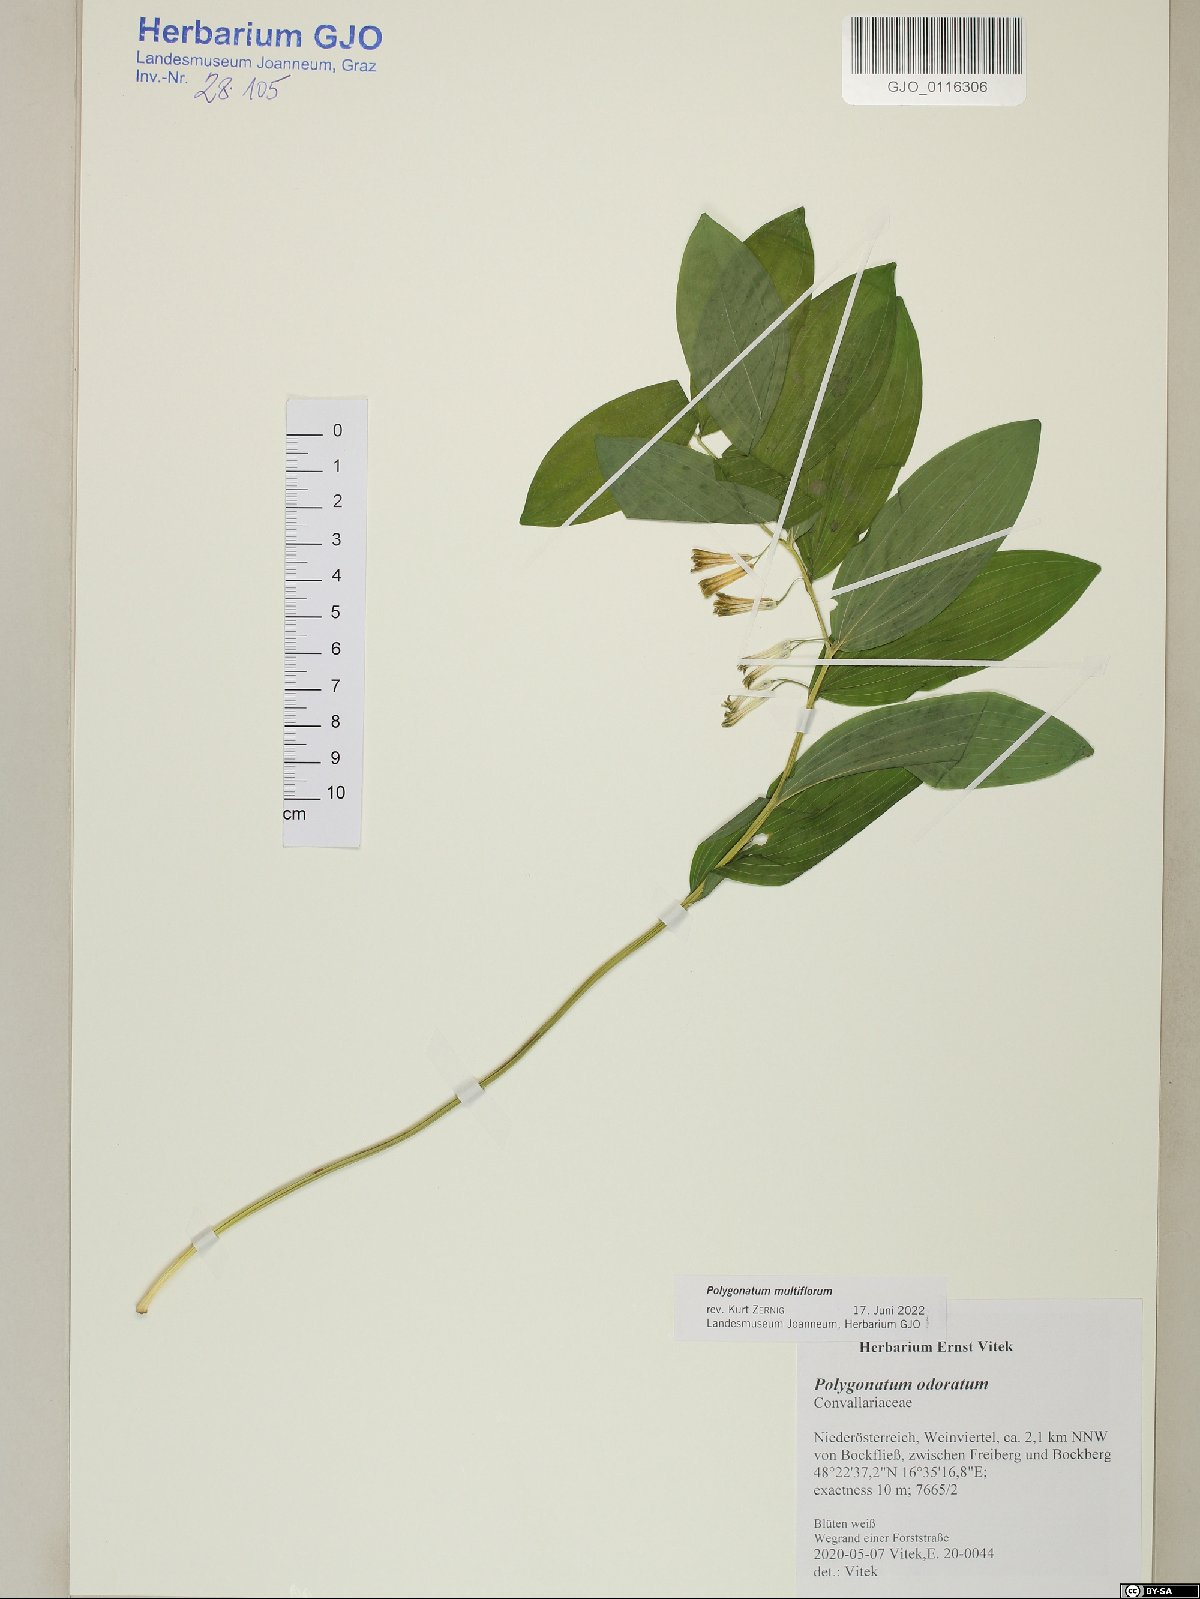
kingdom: Plantae
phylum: Tracheophyta
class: Liliopsida
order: Asparagales
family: Asparagaceae
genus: Polygonatum
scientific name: Polygonatum multiflorum
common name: Solomon's-seal
